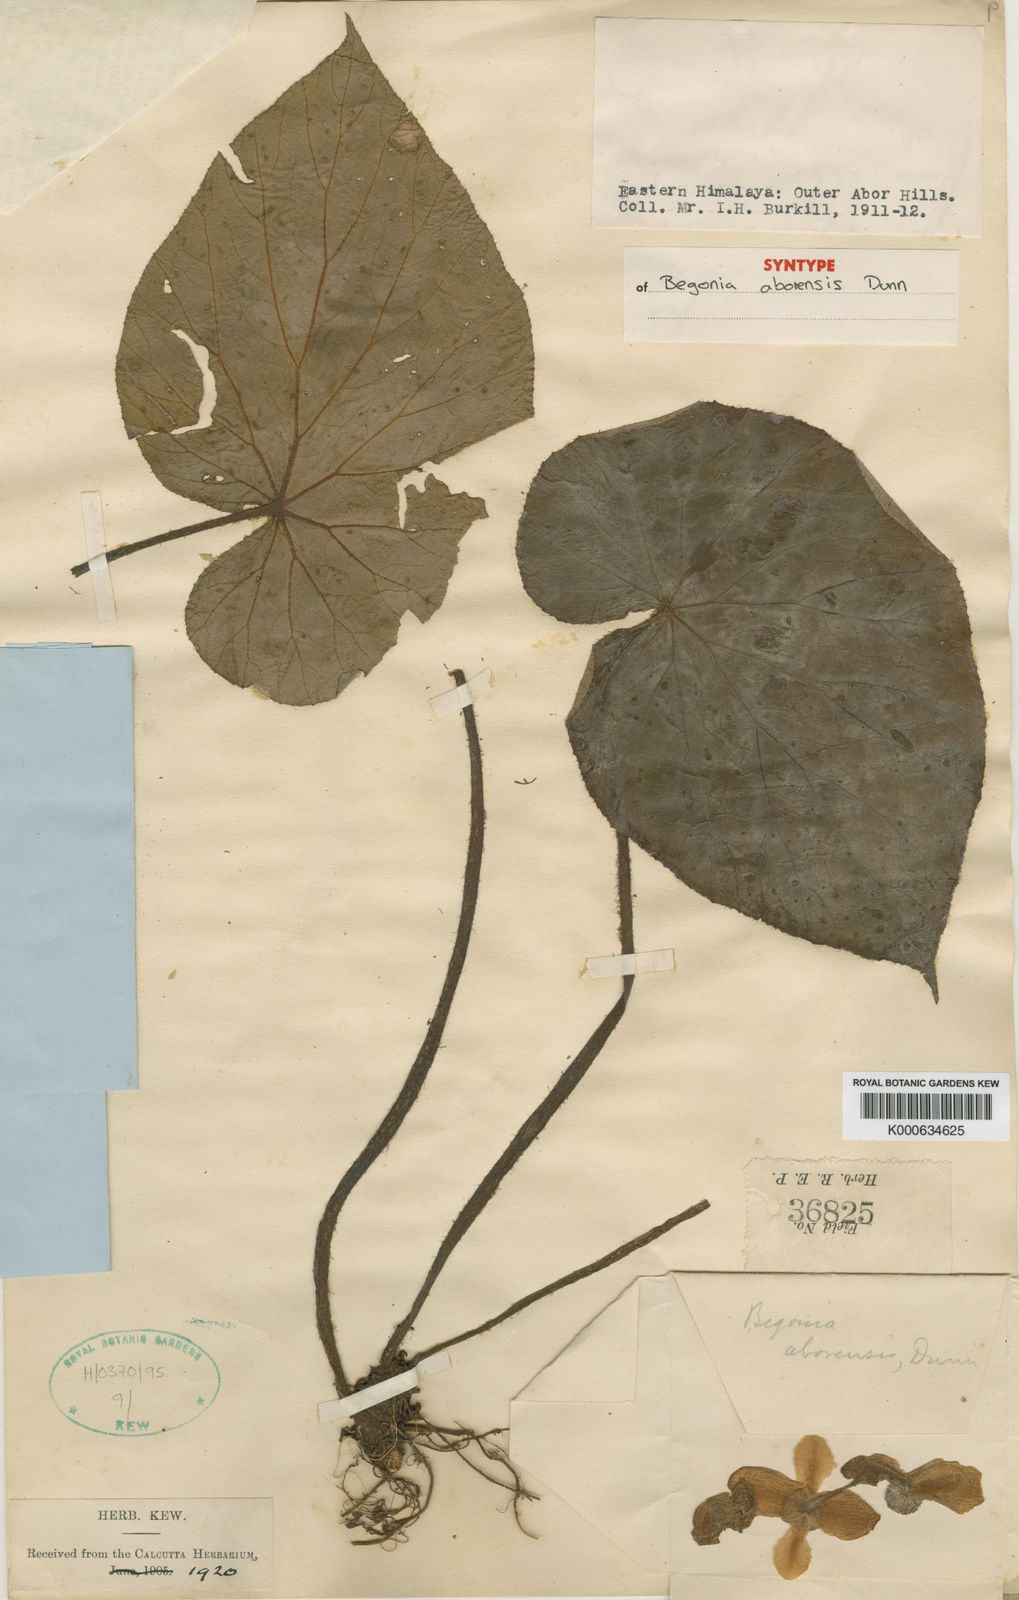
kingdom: Plantae
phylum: Tracheophyta
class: Magnoliopsida
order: Cucurbitales
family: Begoniaceae
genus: Begonia
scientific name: Begonia silletensis
